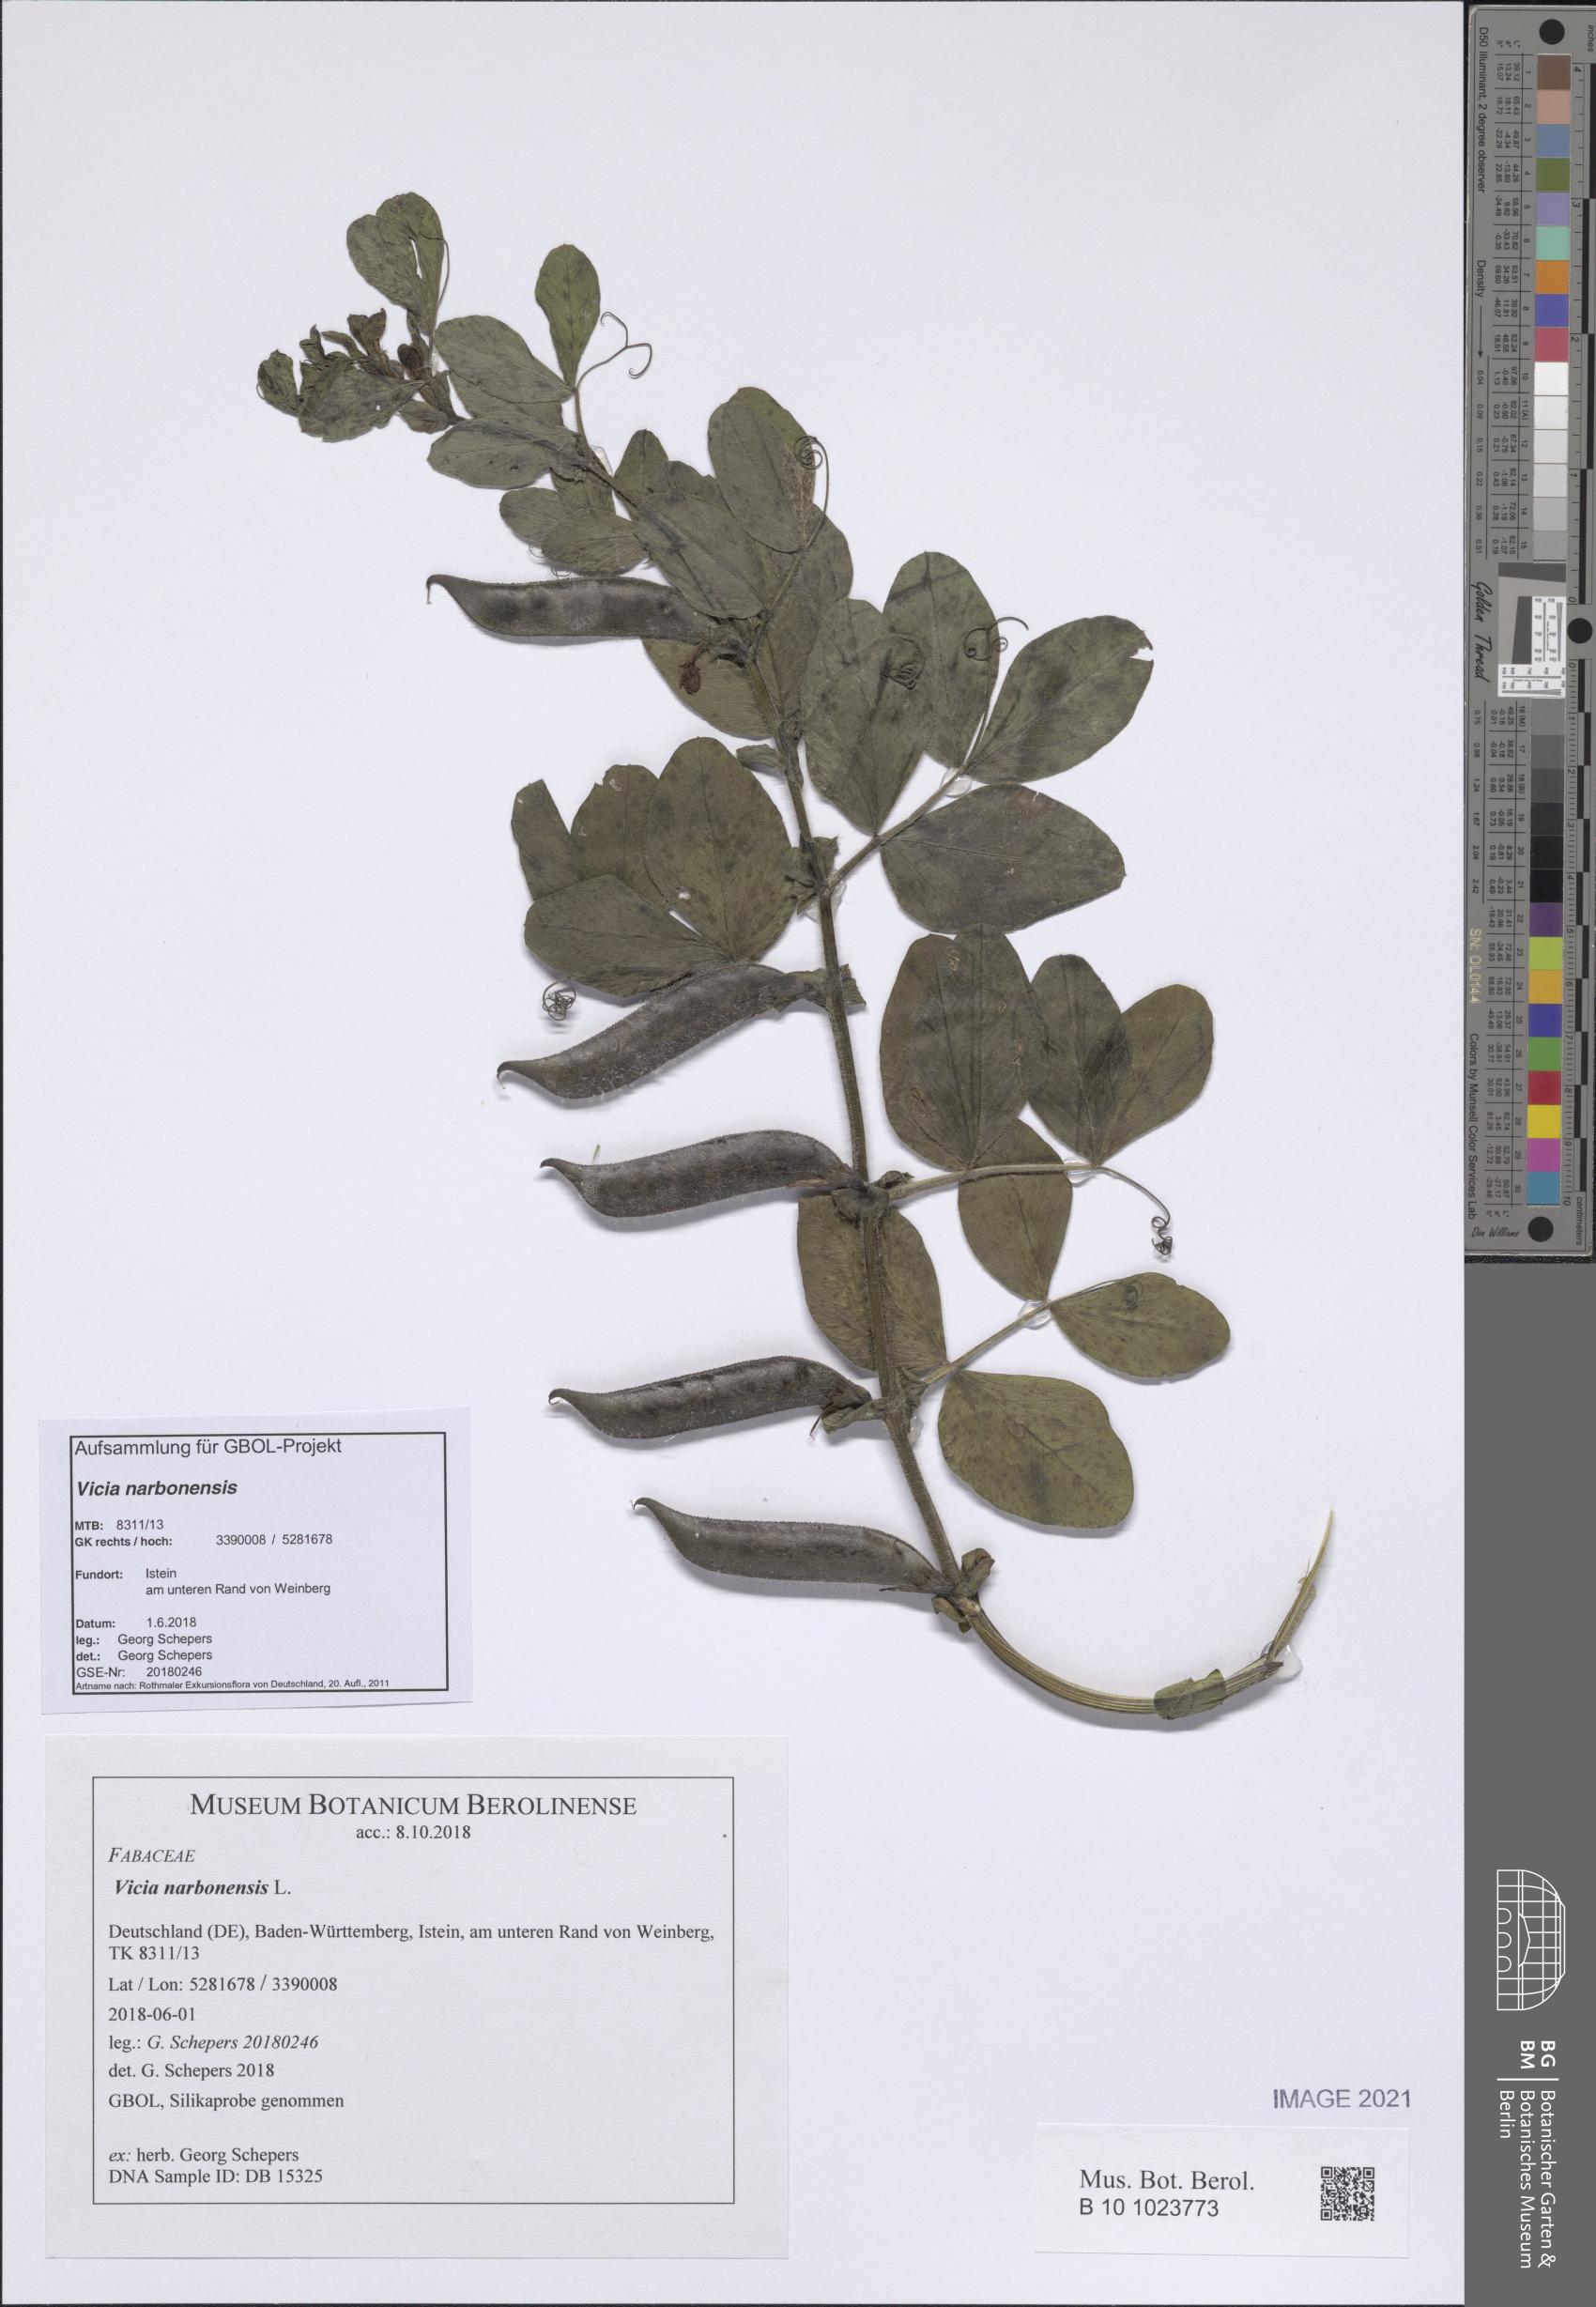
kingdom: Plantae
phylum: Tracheophyta
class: Magnoliopsida
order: Fabales
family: Fabaceae
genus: Vicia
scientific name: Vicia narbonensis
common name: Narbonne vetch
